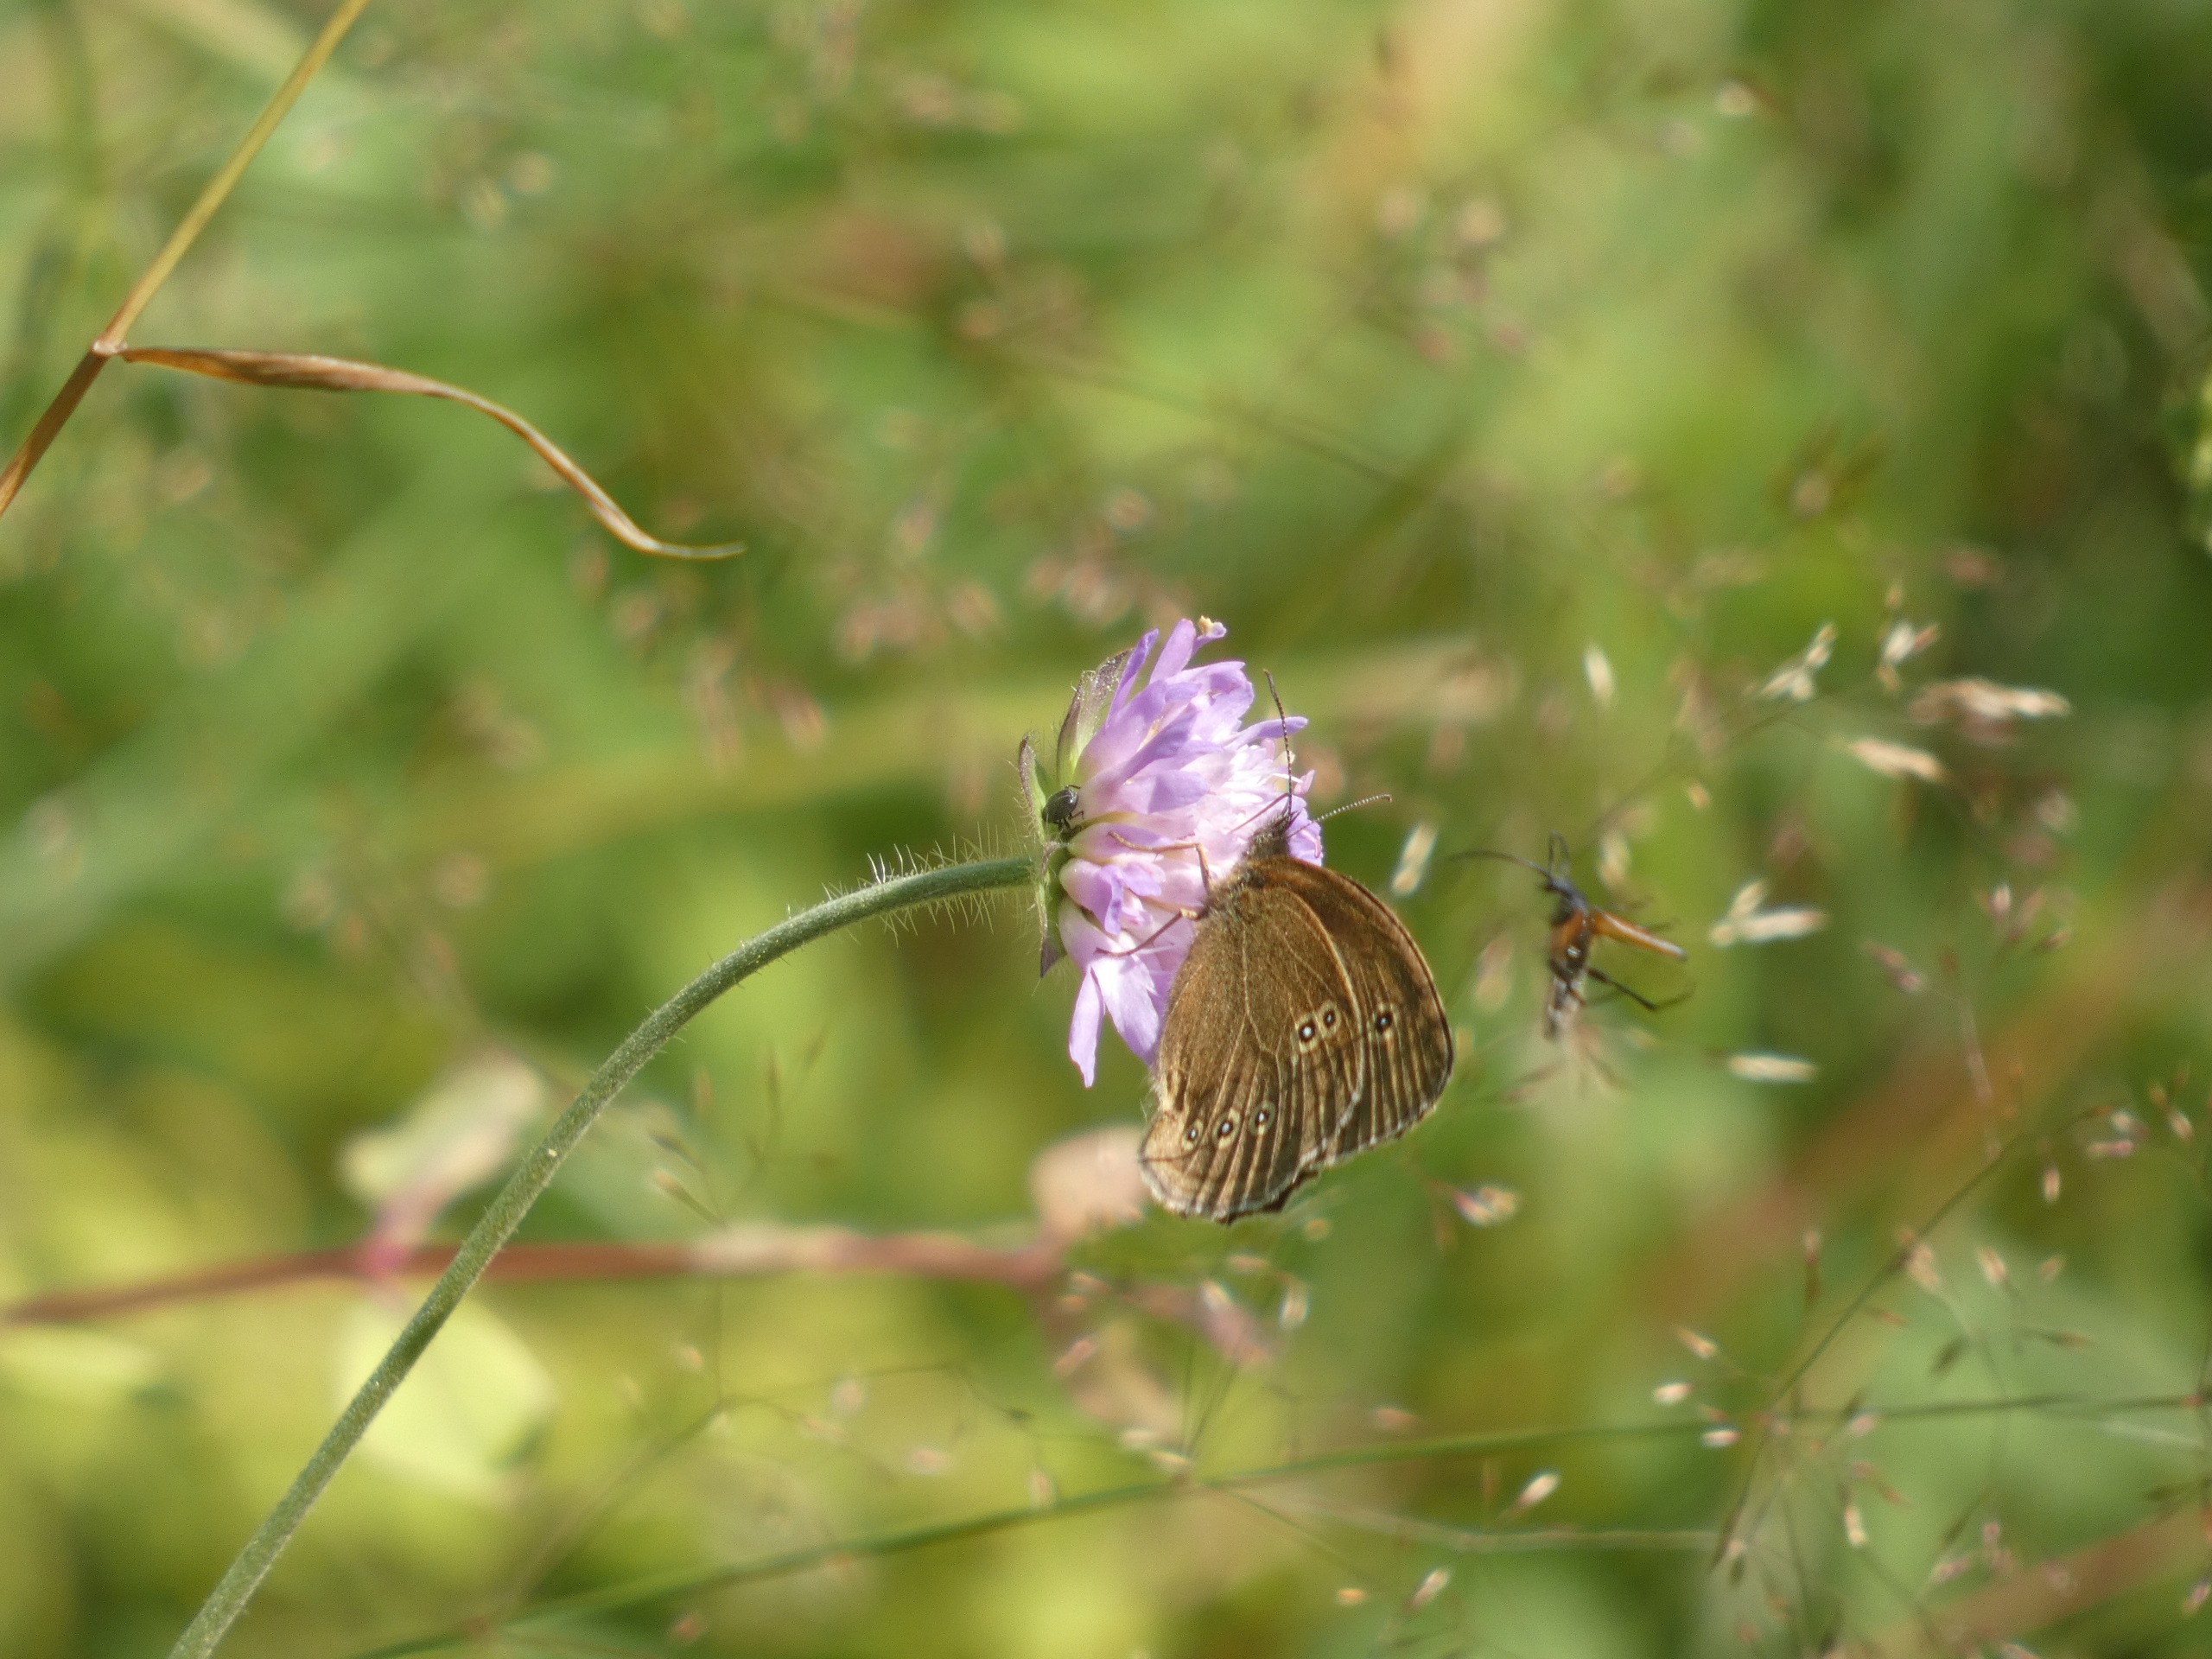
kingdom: Animalia
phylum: Arthropoda
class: Insecta
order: Lepidoptera
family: Nymphalidae
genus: Aphantopus
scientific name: Aphantopus hyperantus
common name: Engrandøje
